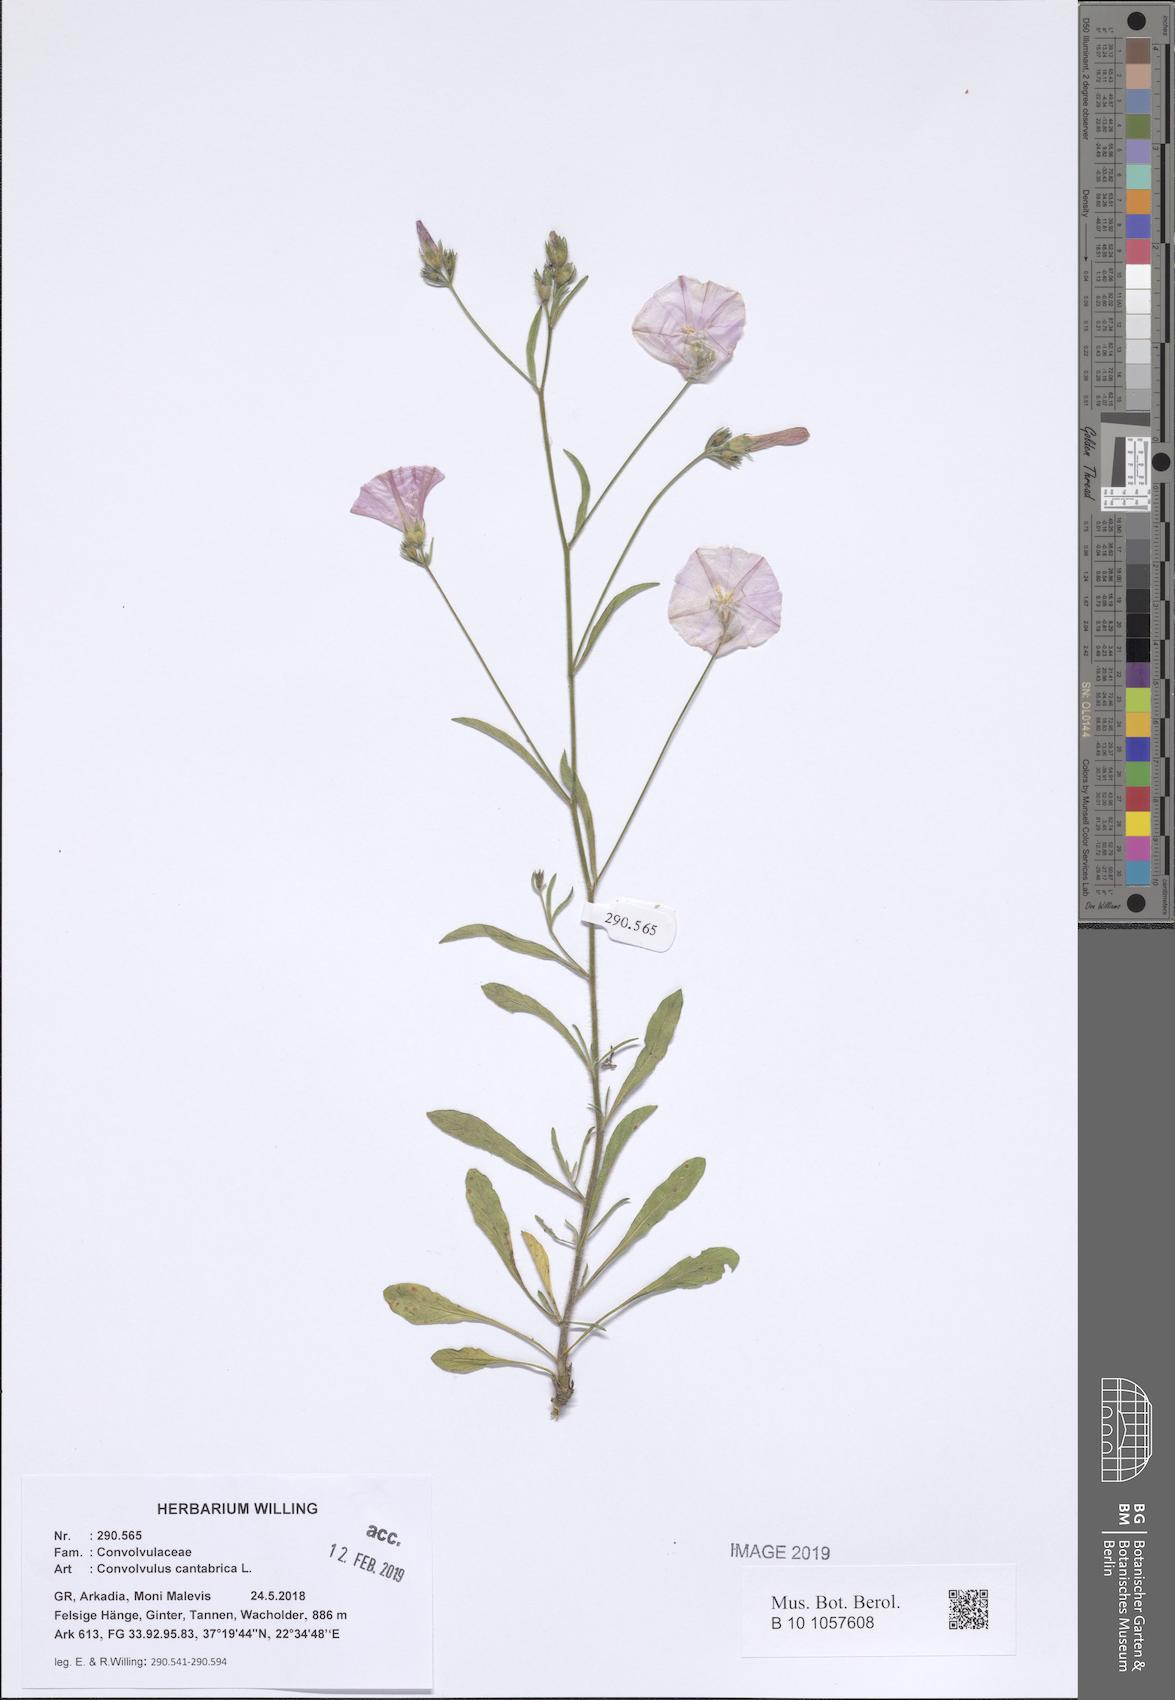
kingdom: Plantae
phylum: Tracheophyta
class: Magnoliopsida
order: Solanales
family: Convolvulaceae
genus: Convolvulus
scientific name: Convolvulus cantabrica
